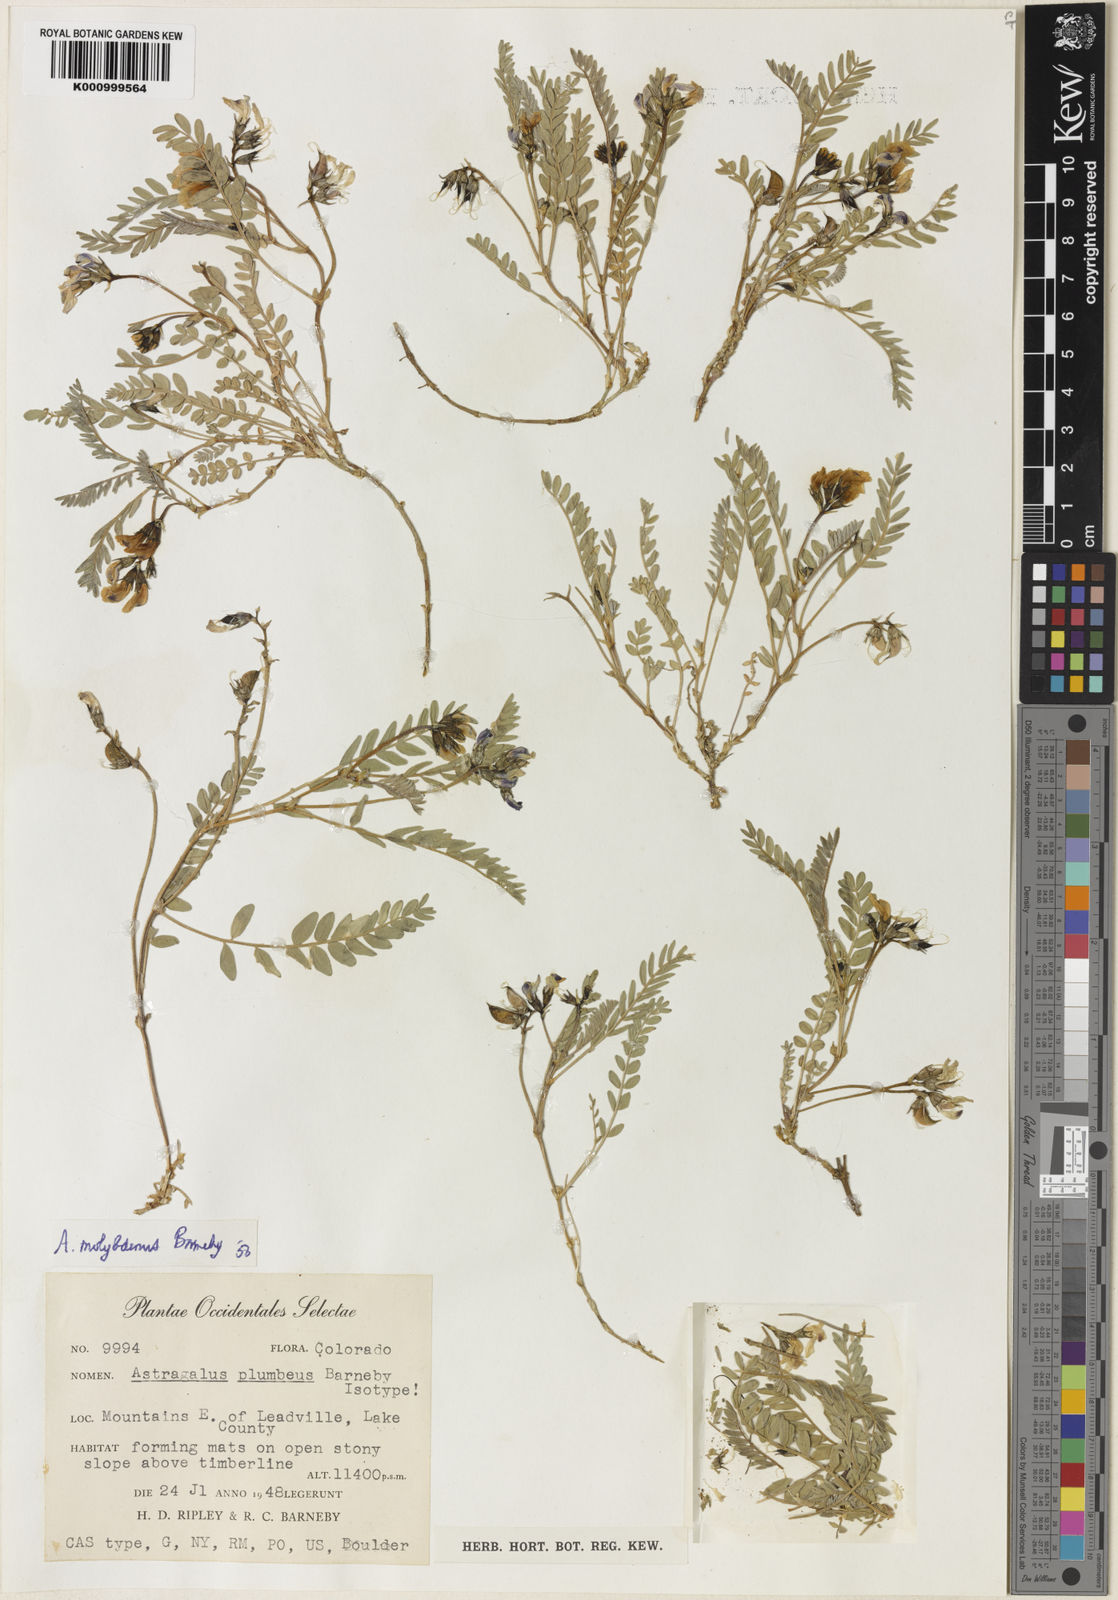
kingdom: Plantae
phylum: Tracheophyta
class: Magnoliopsida
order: Fabales
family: Fabaceae
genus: Astragalus
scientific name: Astragalus molybdenus
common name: Leadville
